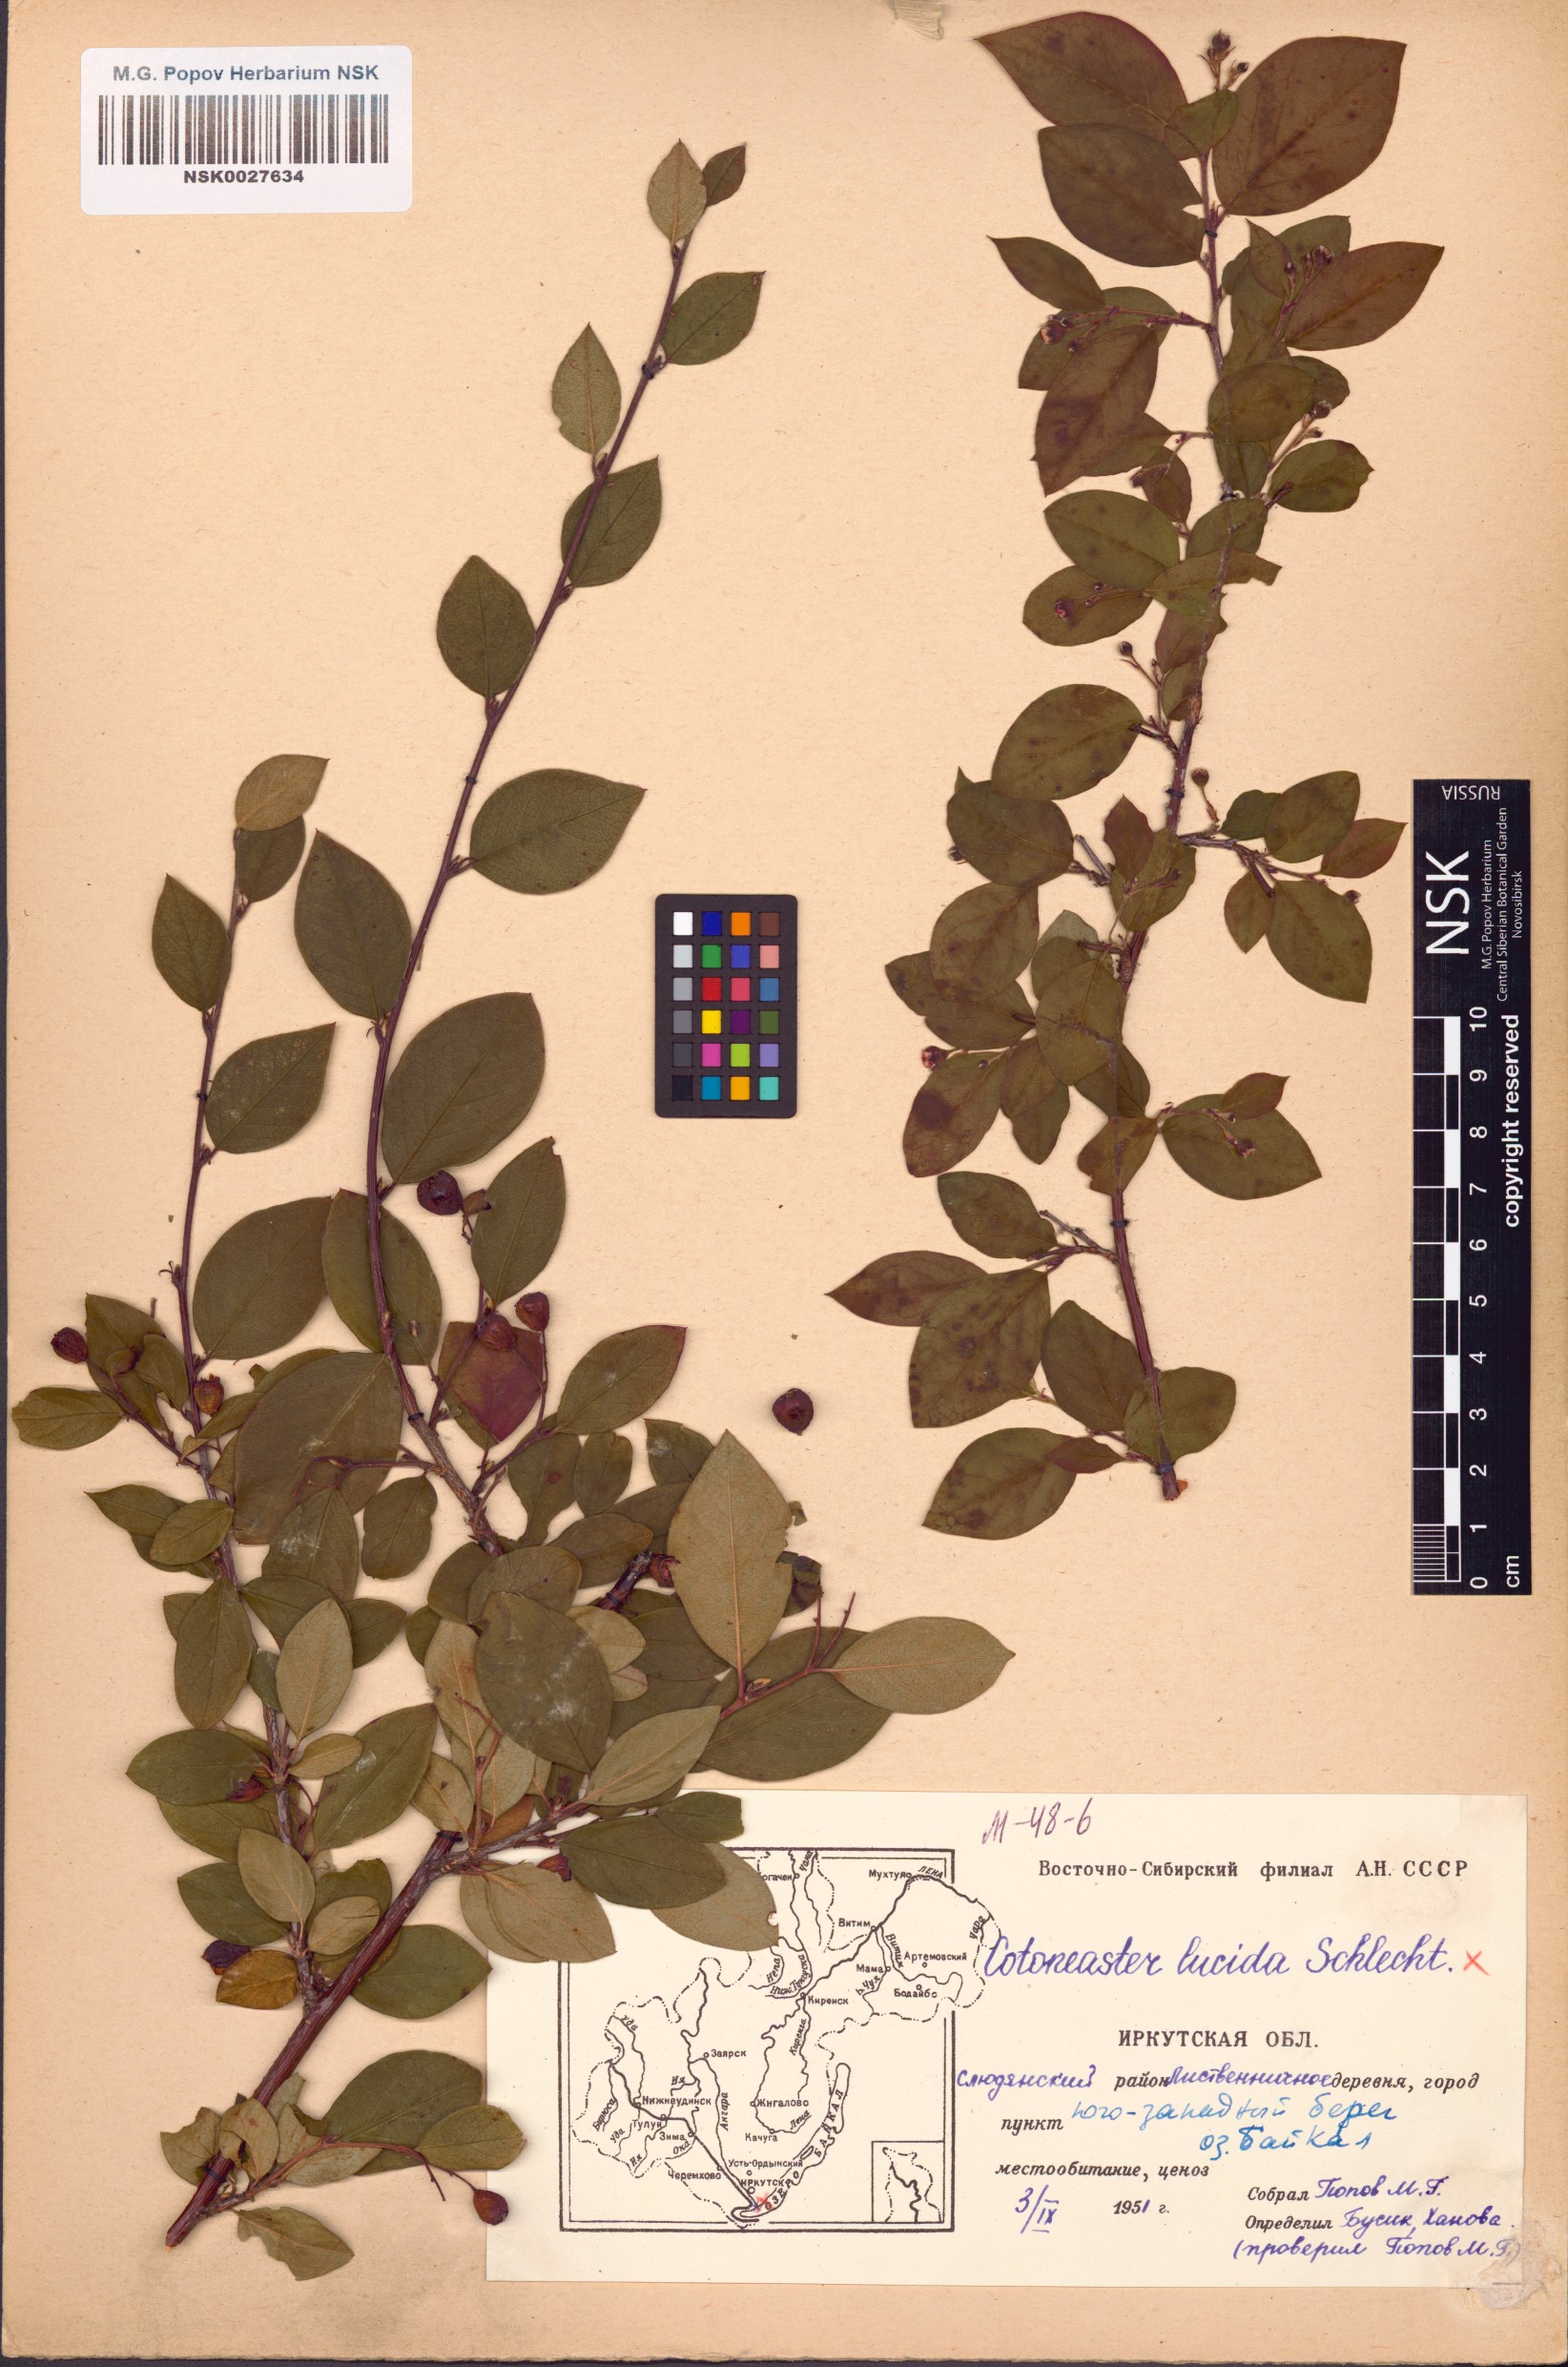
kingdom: Plantae
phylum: Tracheophyta
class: Magnoliopsida
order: Rosales
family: Rosaceae
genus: Cotoneaster
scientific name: Cotoneaster acutifolius
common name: Peking cotoneaster
